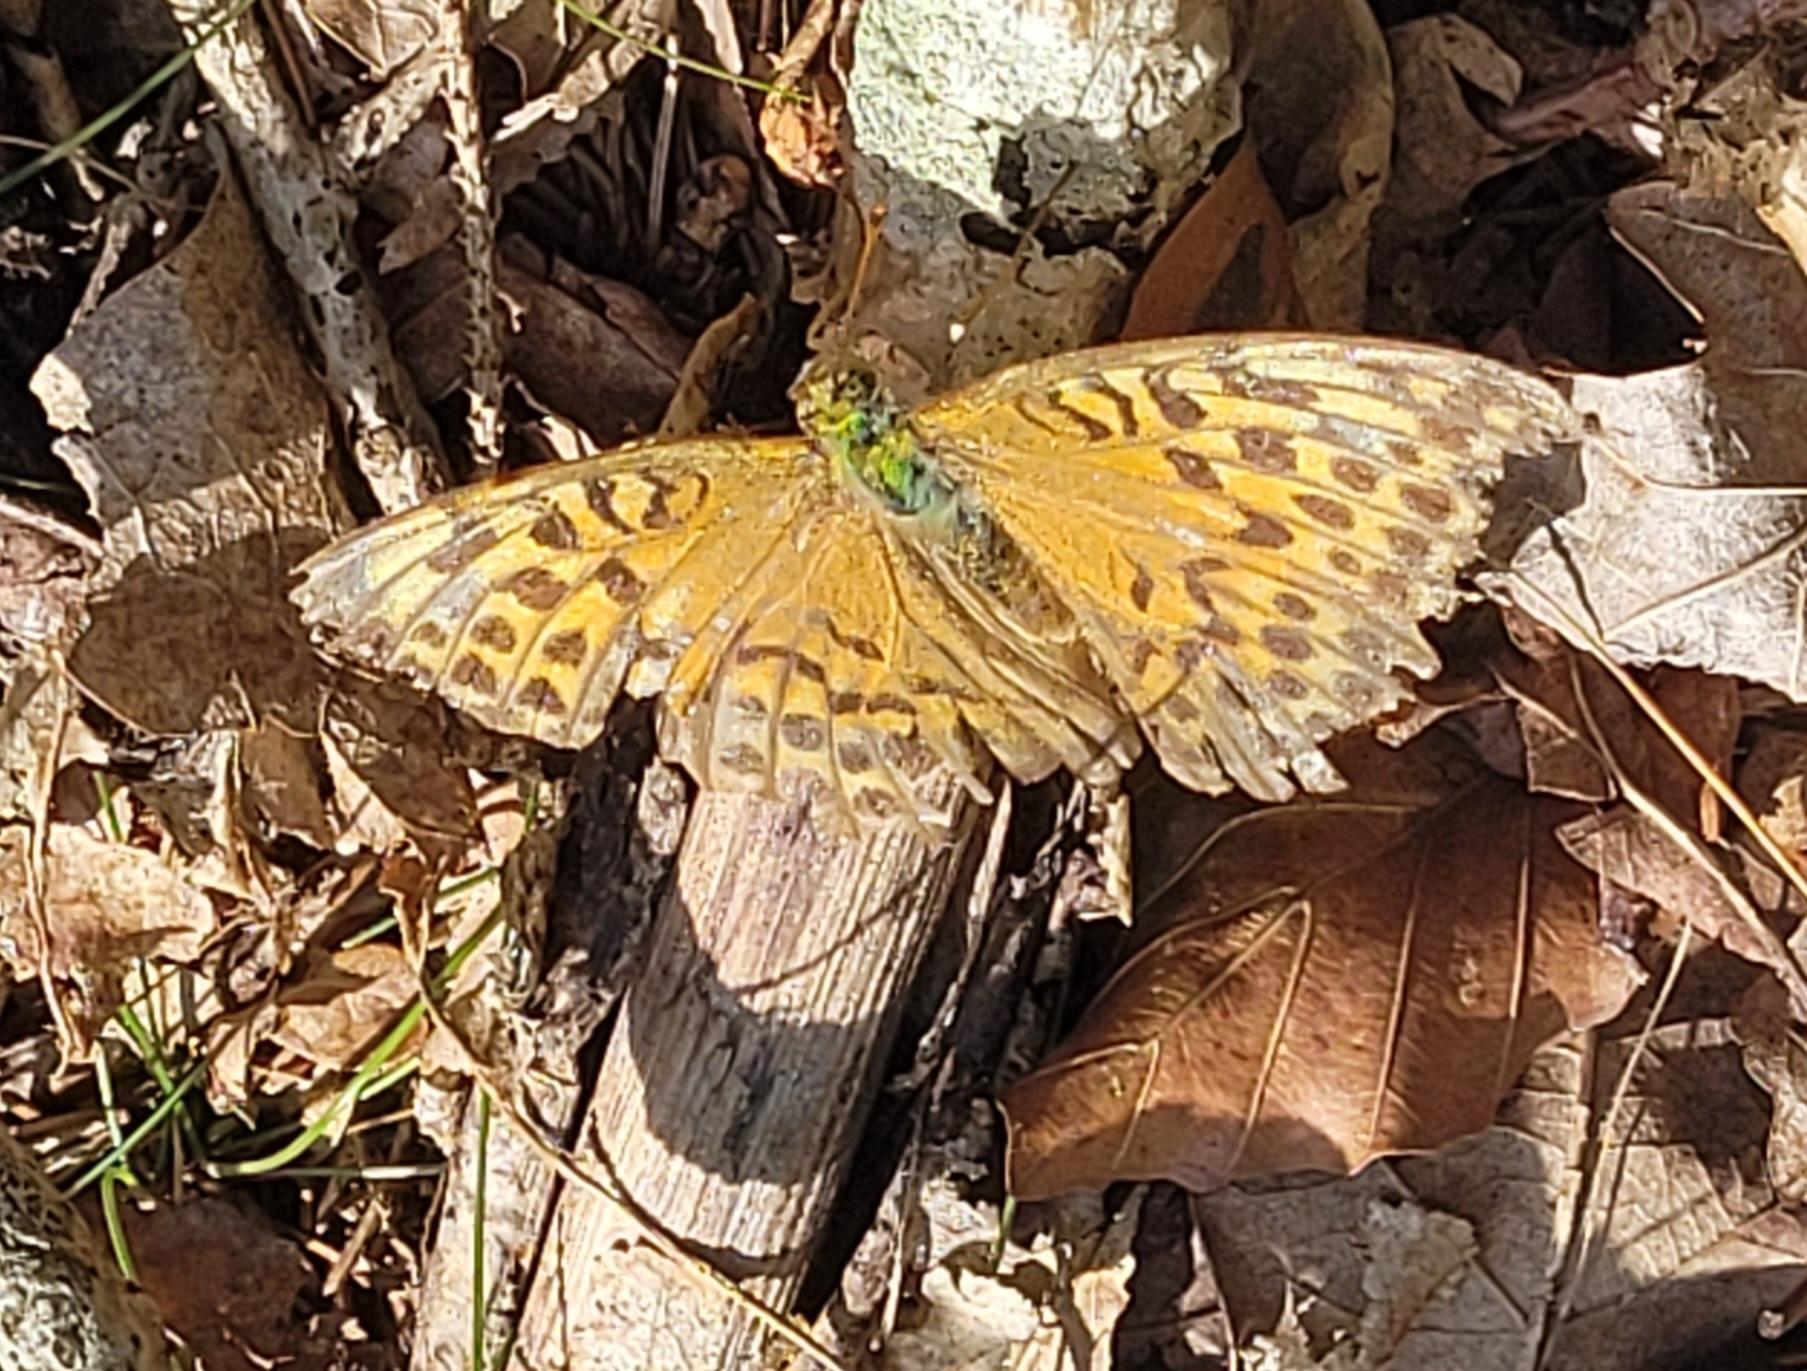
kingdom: Animalia
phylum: Arthropoda
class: Insecta
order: Lepidoptera
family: Nymphalidae
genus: Argynnis
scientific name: Argynnis paphia
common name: Kejserkåbe
